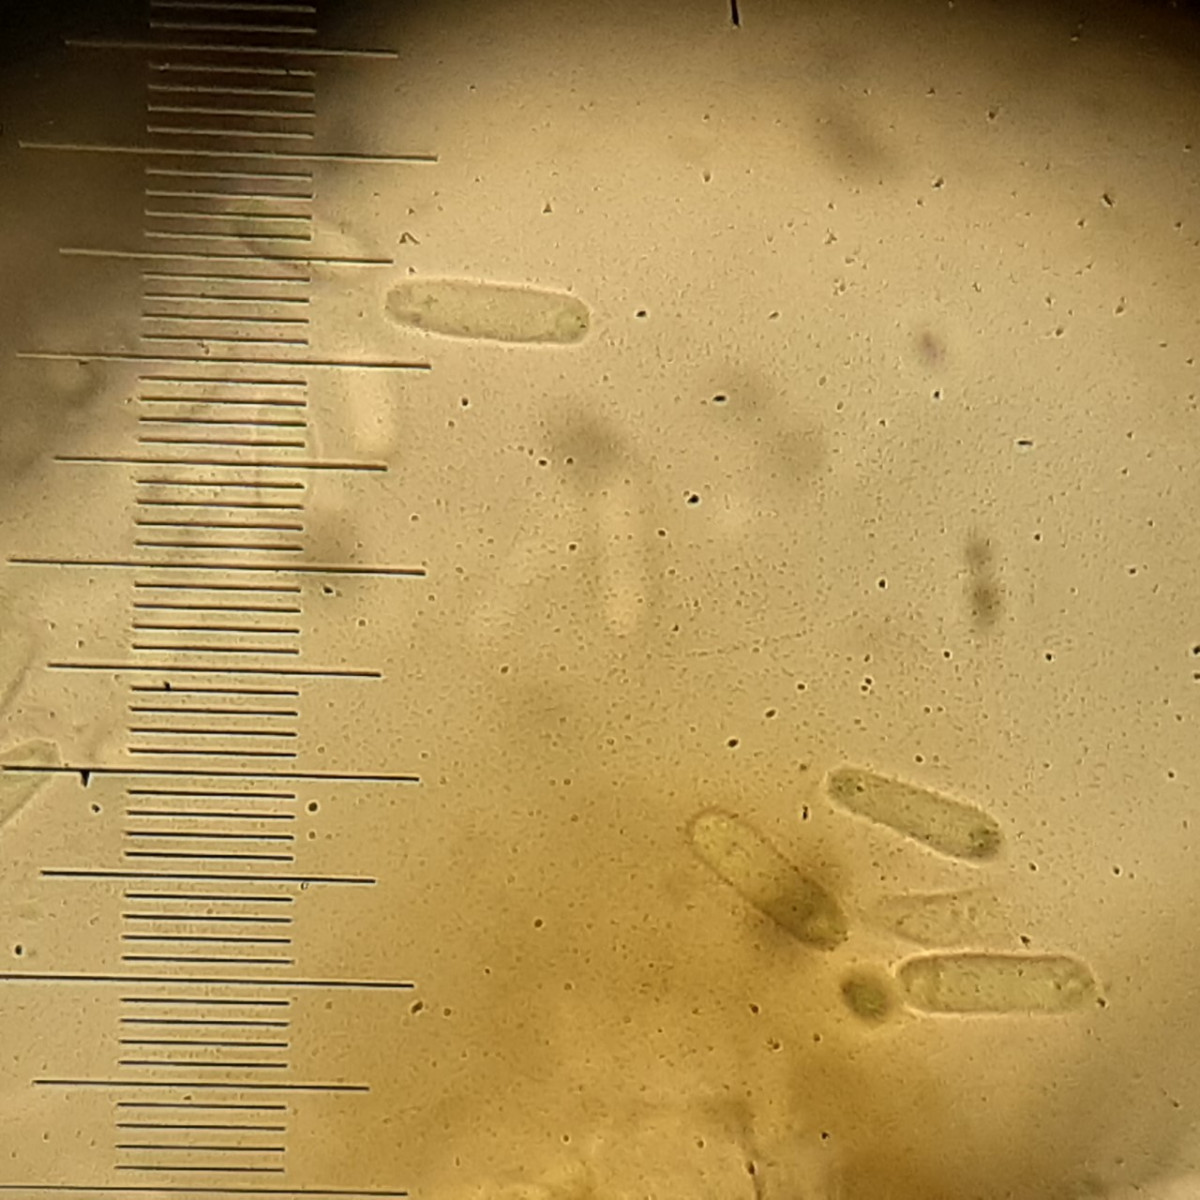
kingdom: Fungi
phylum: Ascomycota
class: Dothideomycetes
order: Pleosporales
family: Phaeosphaeriaceae
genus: Ampelomyces
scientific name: Ampelomyces quisqualis
